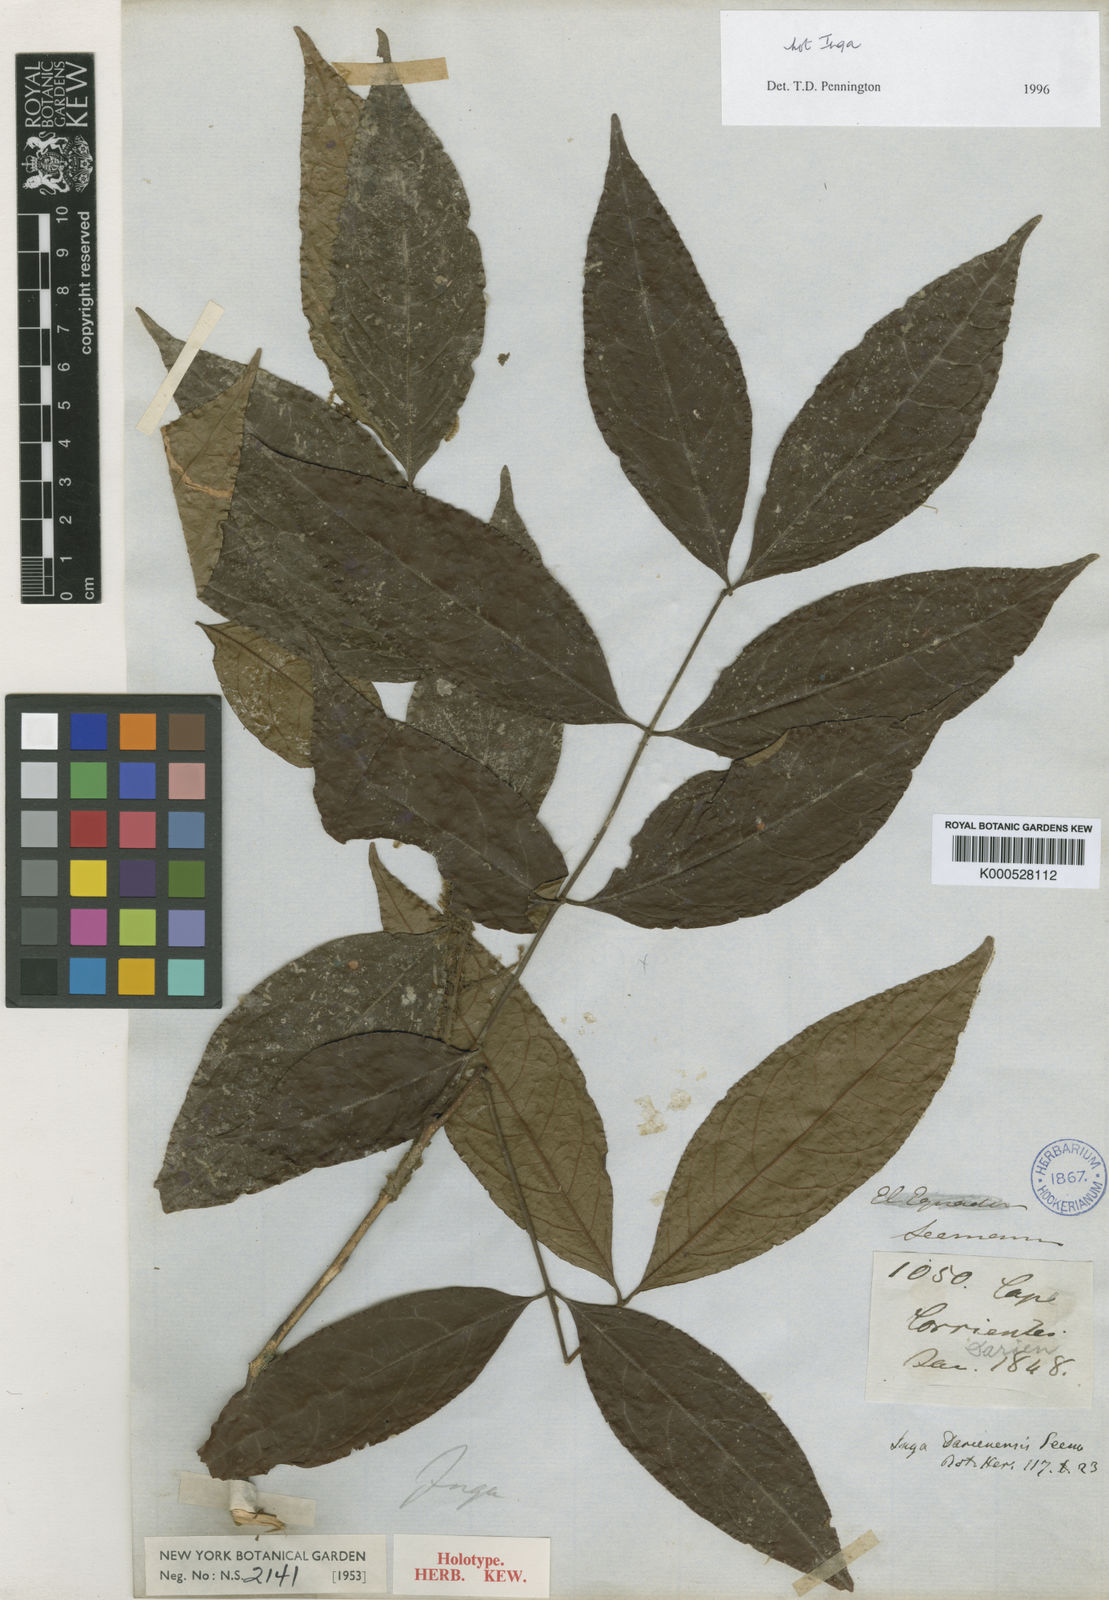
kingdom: Plantae
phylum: Tracheophyta
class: Magnoliopsida
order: Fabales
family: Fabaceae
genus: Cojoba
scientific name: Cojoba rufescens
